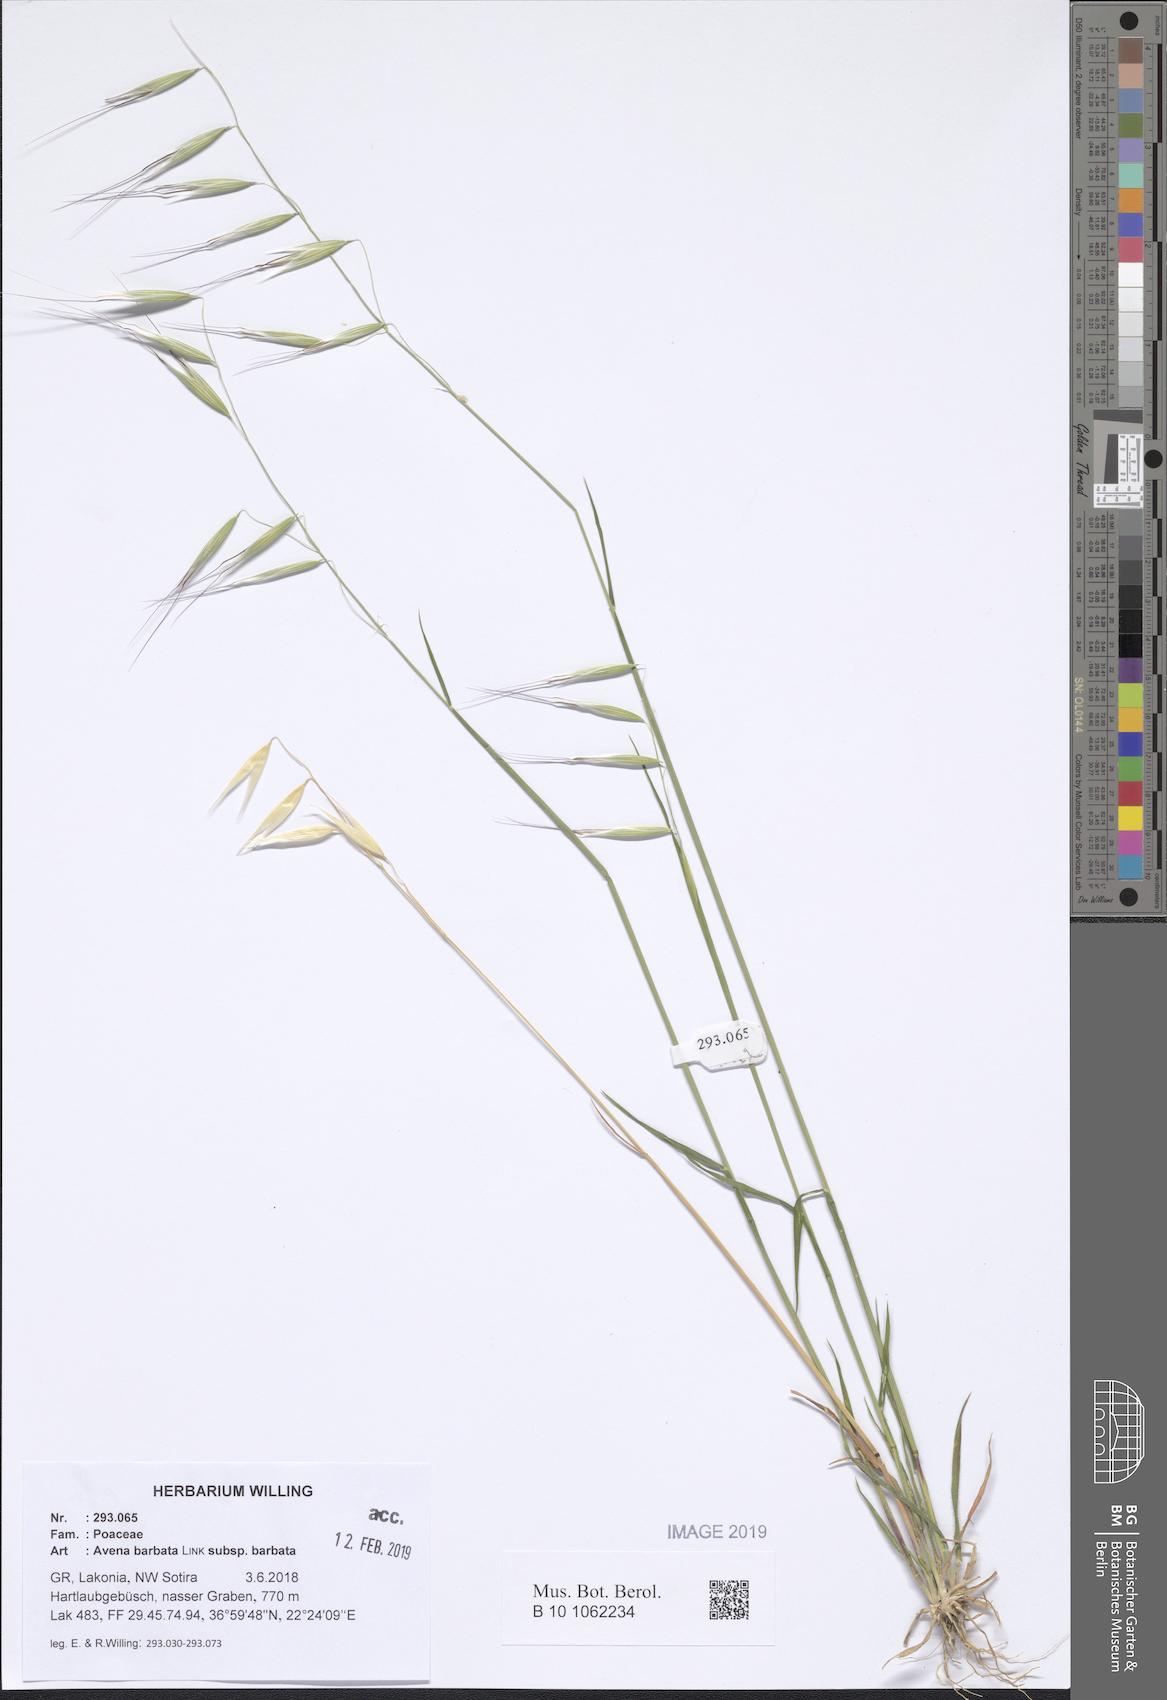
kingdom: Plantae
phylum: Tracheophyta
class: Liliopsida
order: Poales
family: Poaceae
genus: Avena
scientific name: Avena barbata
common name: Slender oat
